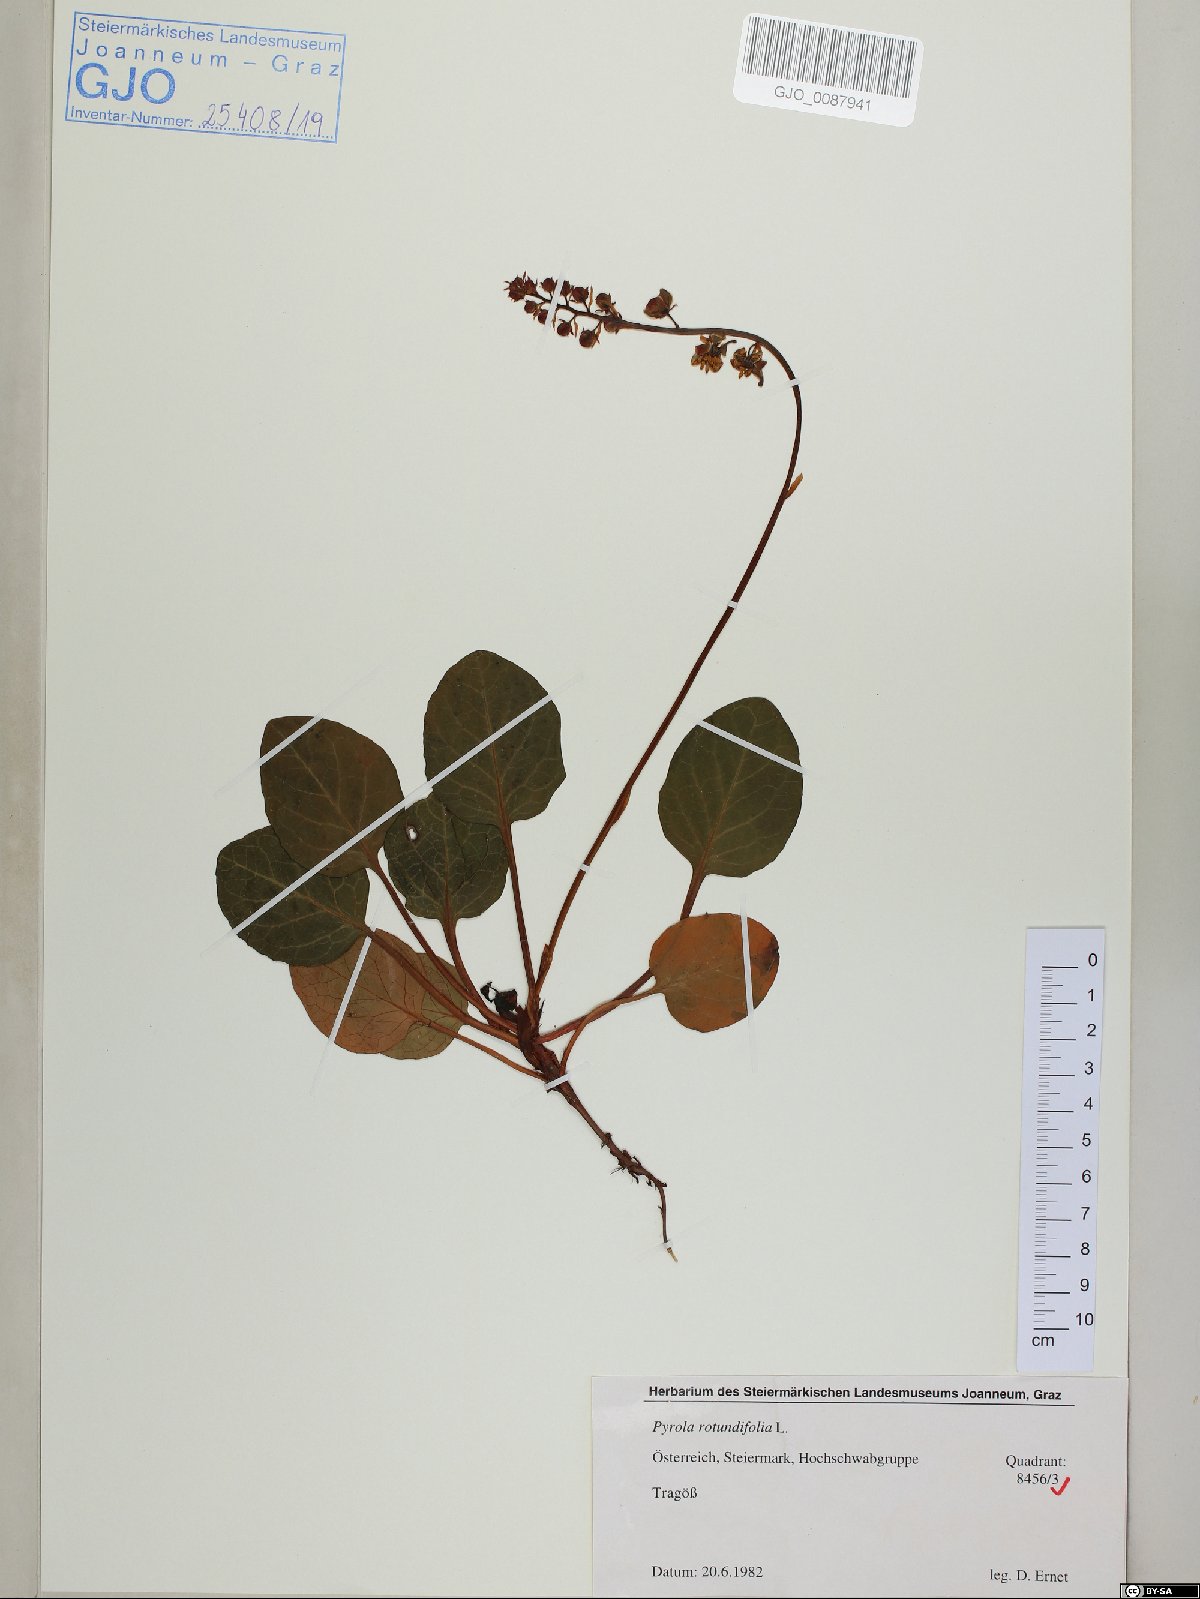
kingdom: Plantae
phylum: Tracheophyta
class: Magnoliopsida
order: Ericales
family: Ericaceae
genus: Pyrola
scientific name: Pyrola rotundifolia
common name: Round-leaved wintergreen
